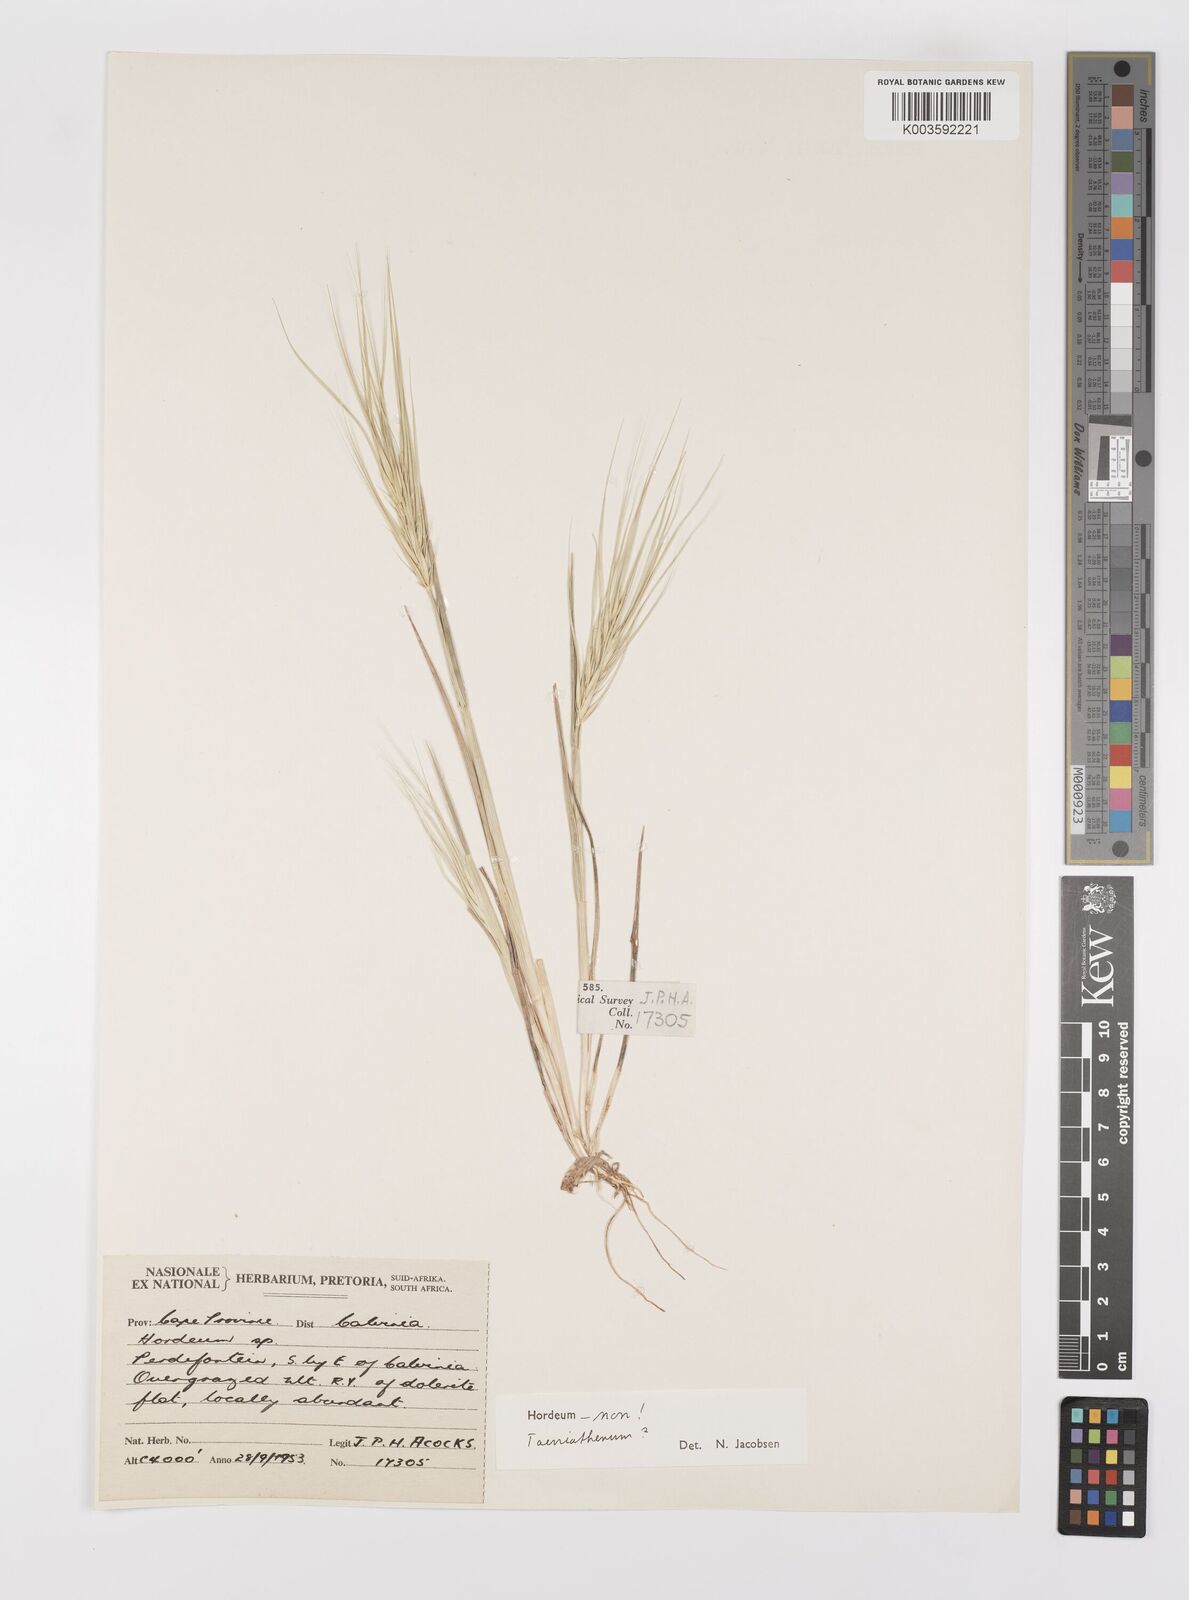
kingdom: Plantae
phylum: Tracheophyta
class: Liliopsida
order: Poales
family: Poaceae
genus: Taeniatherum
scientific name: Taeniatherum caput-medusae
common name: Medusahead
